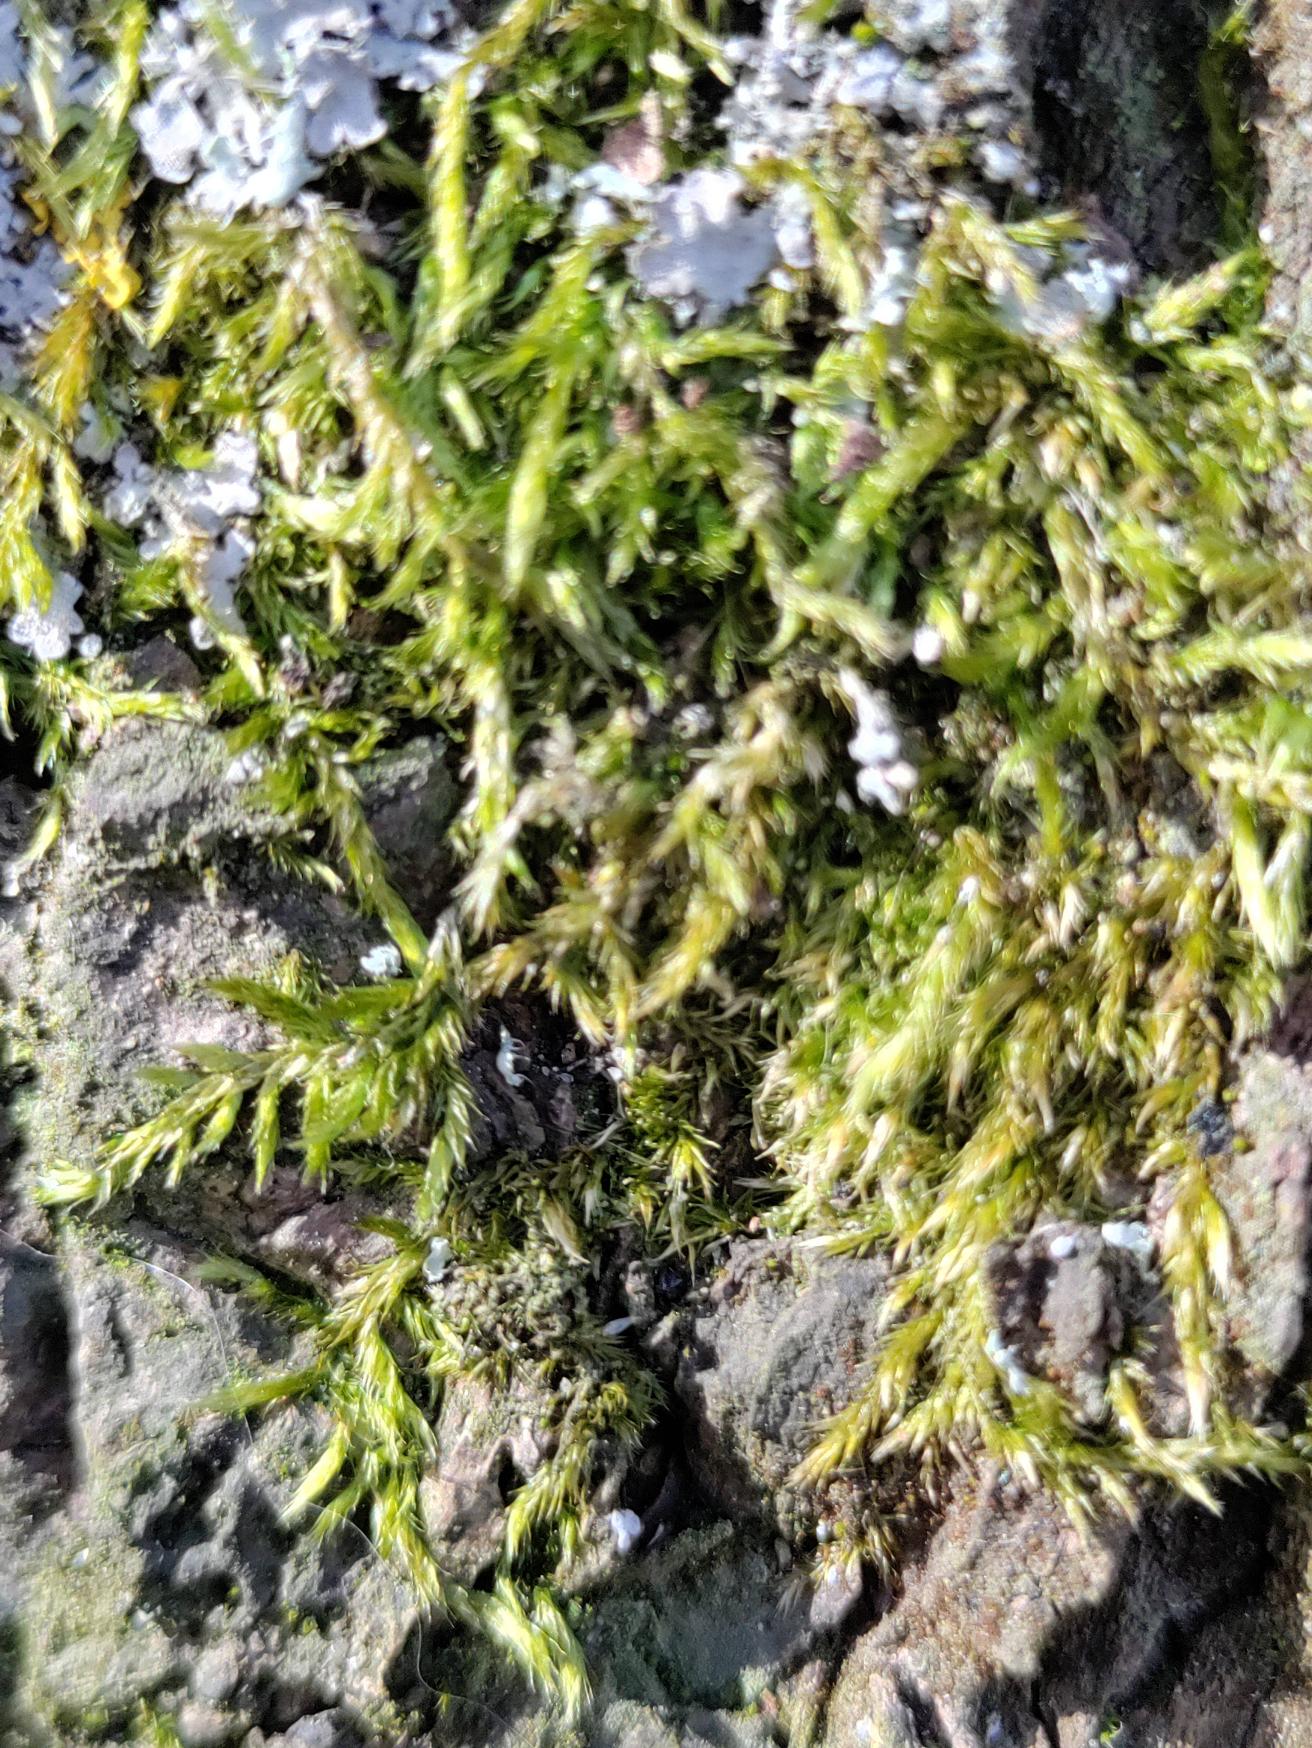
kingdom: Plantae
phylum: Bryophyta
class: Bryopsida
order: Hypnales
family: Hypnaceae
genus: Hypnum
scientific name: Hypnum
